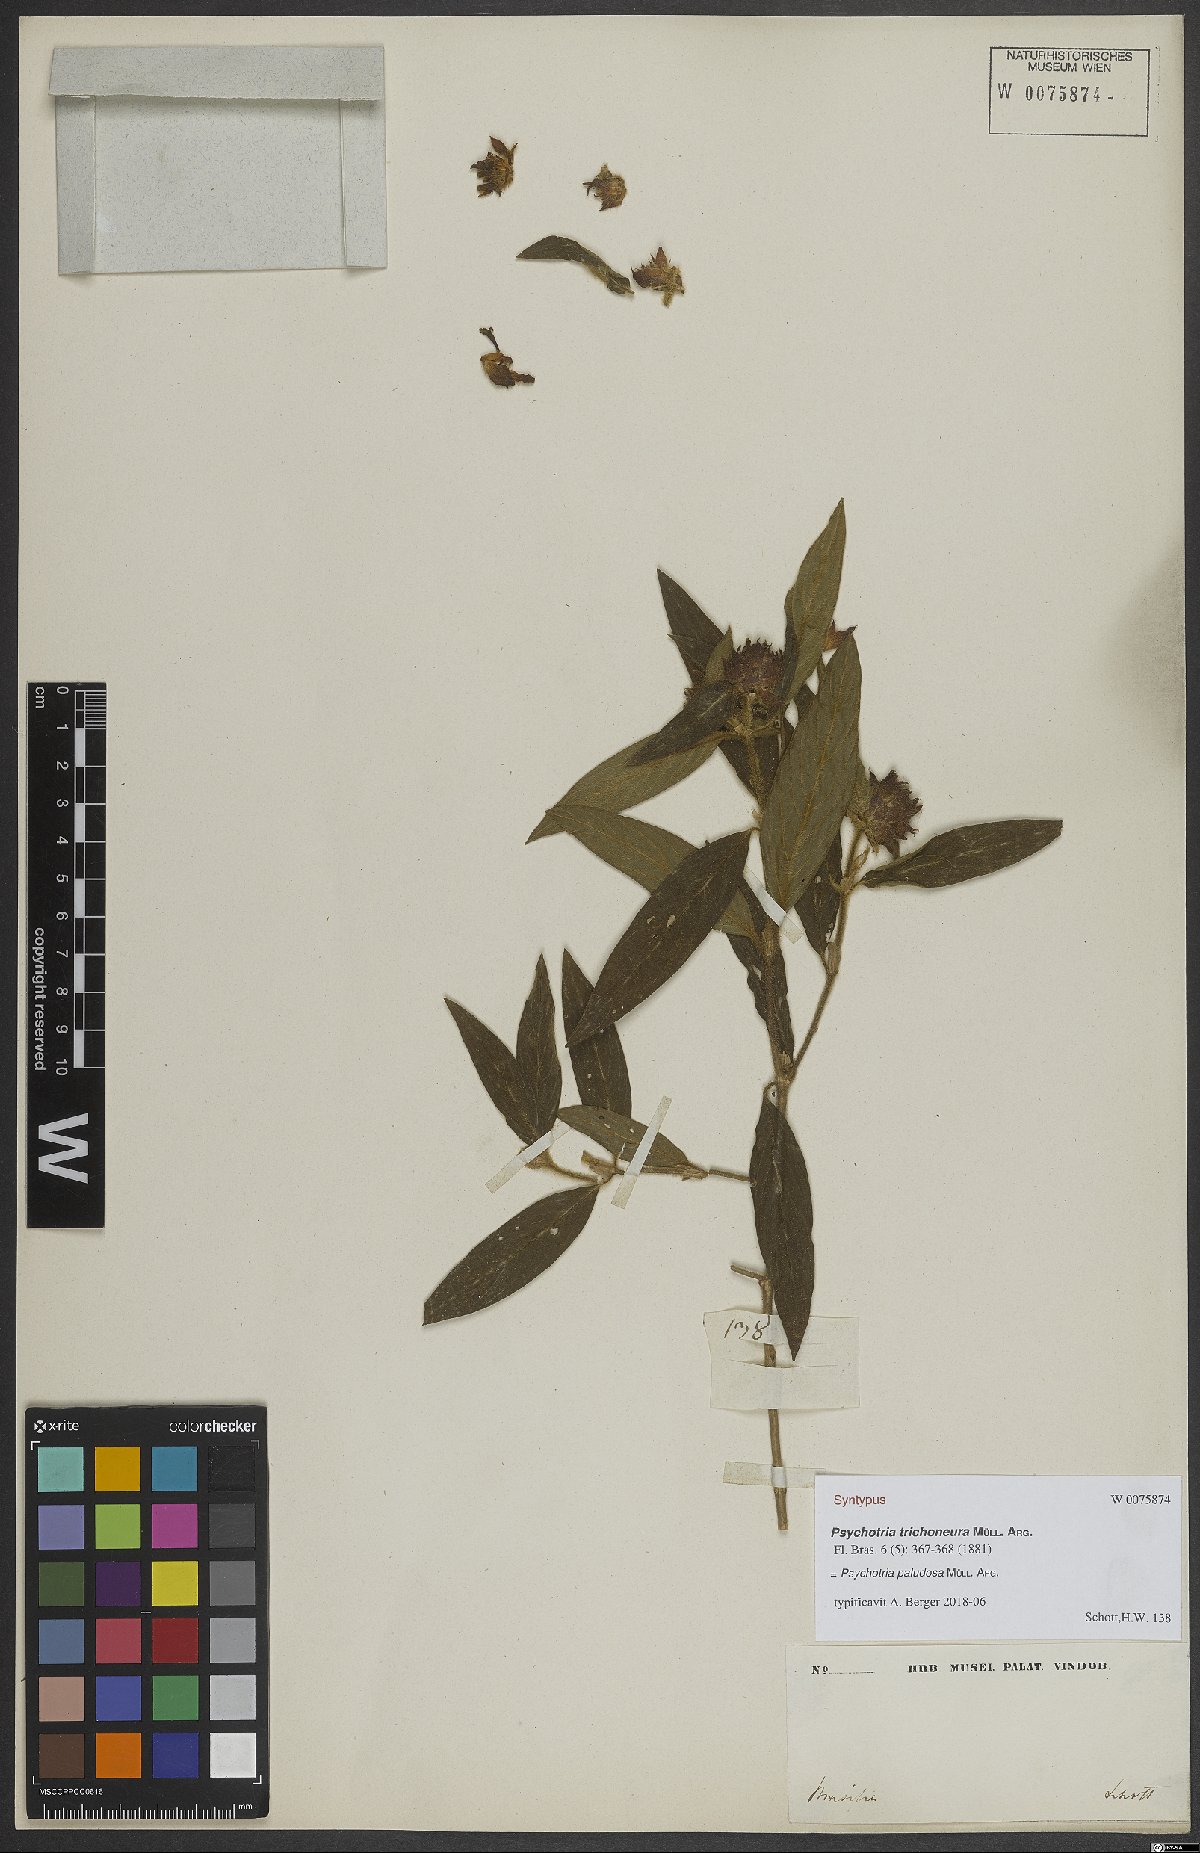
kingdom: Plantae
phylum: Tracheophyta
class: Magnoliopsida
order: Gentianales
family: Rubiaceae
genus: Psychotria
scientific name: Psychotria paludosa
